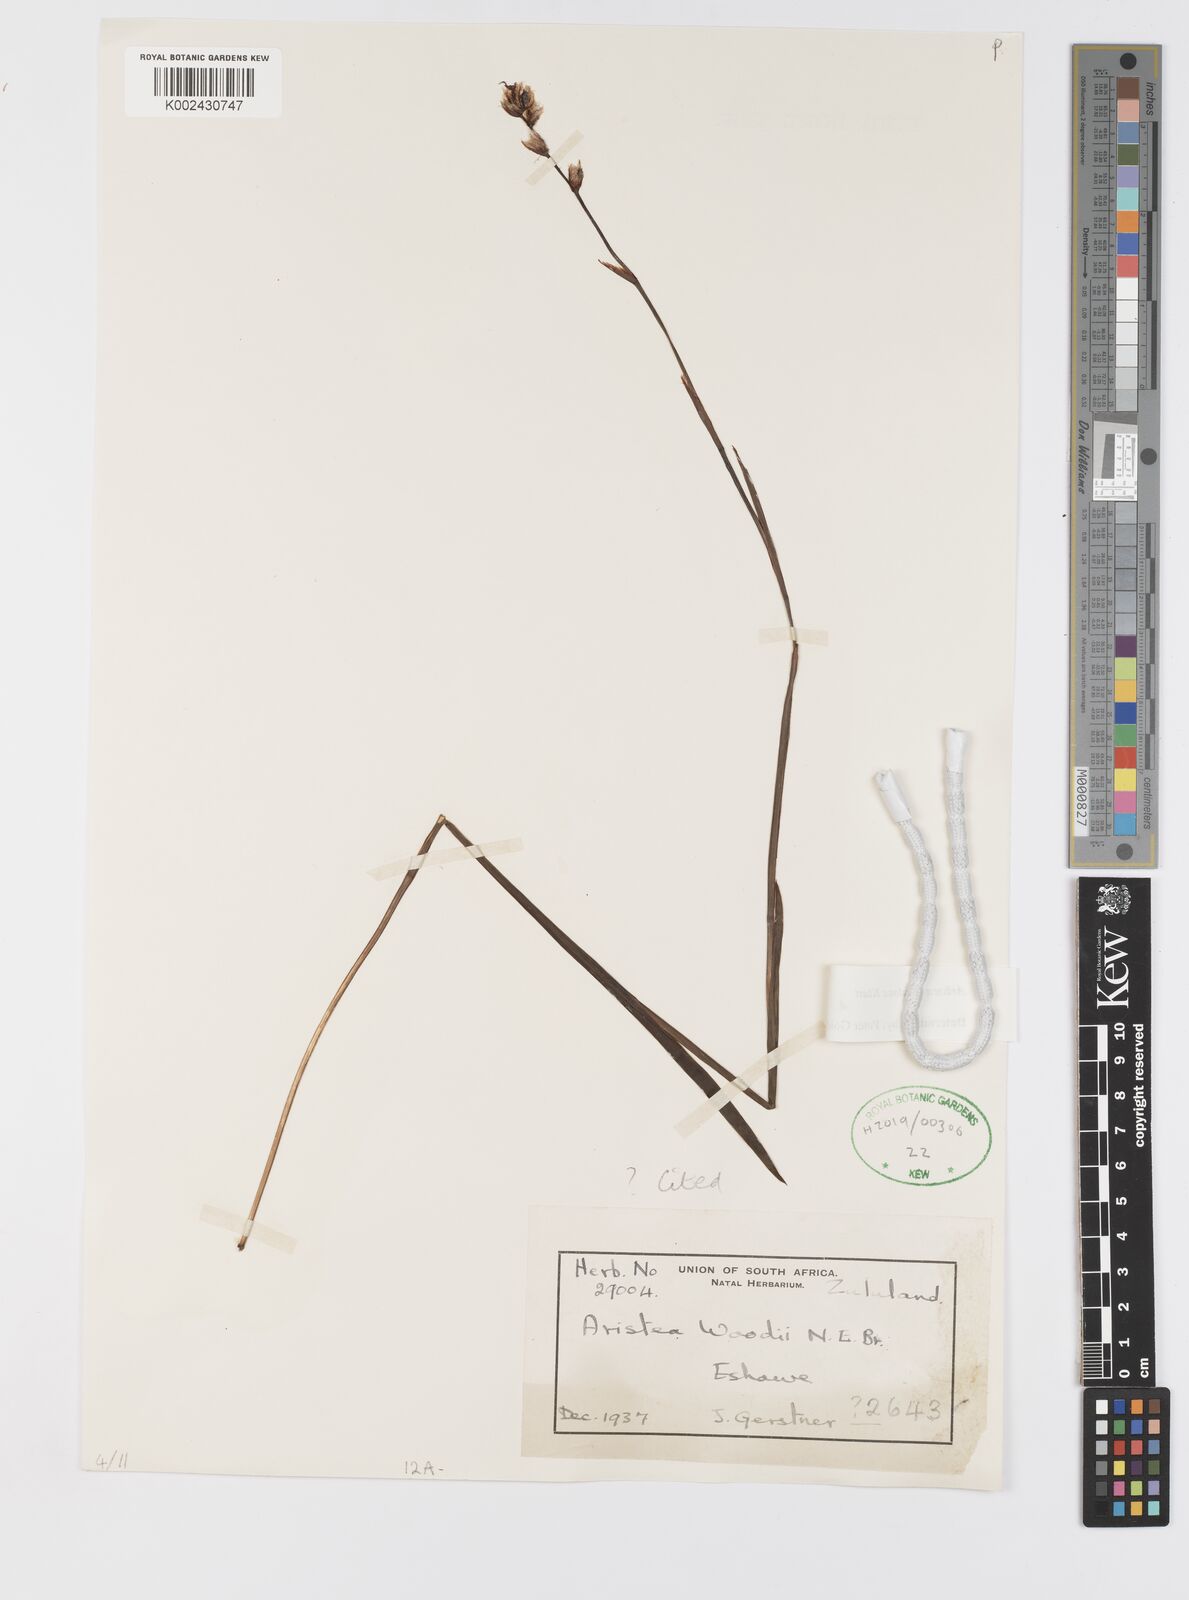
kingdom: Plantae
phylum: Tracheophyta
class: Liliopsida
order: Asparagales
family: Iridaceae
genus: Aristea
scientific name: Aristea torulosa
